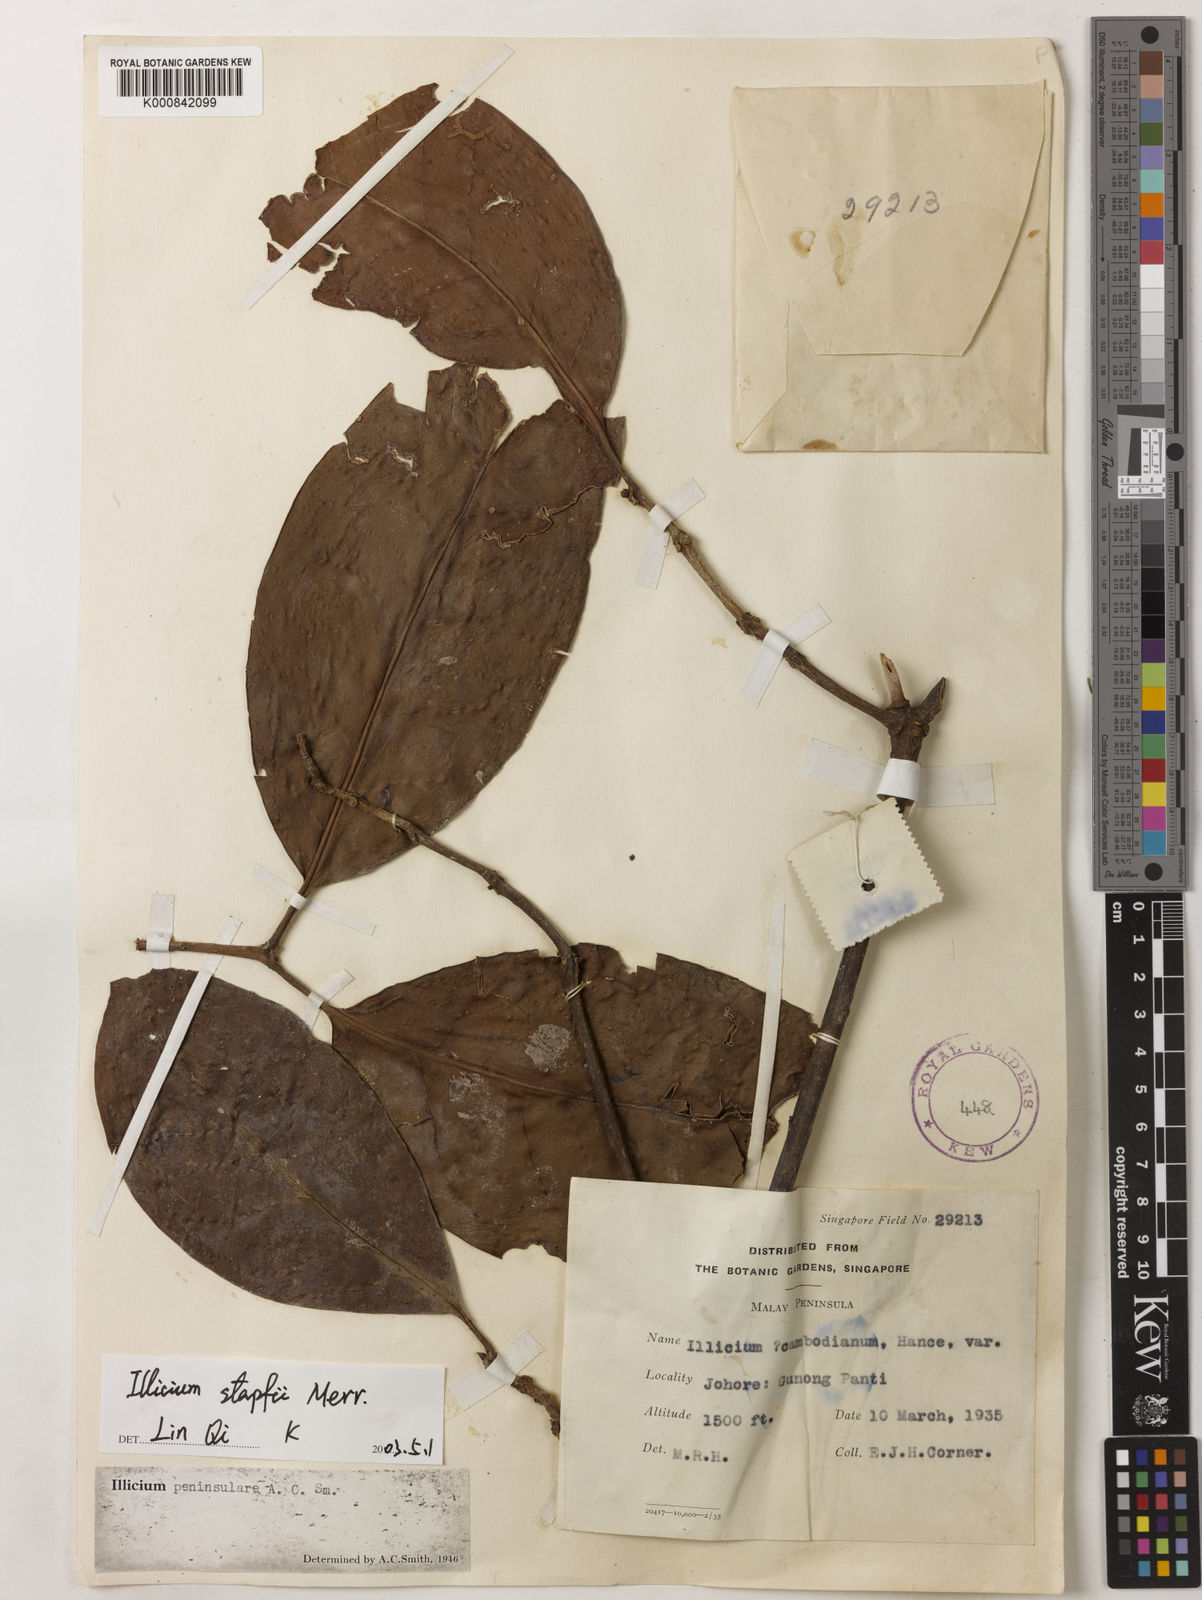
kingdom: Plantae
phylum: Tracheophyta
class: Magnoliopsida
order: Austrobaileyales
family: Schisandraceae
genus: Illicium
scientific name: Illicium stapfii
